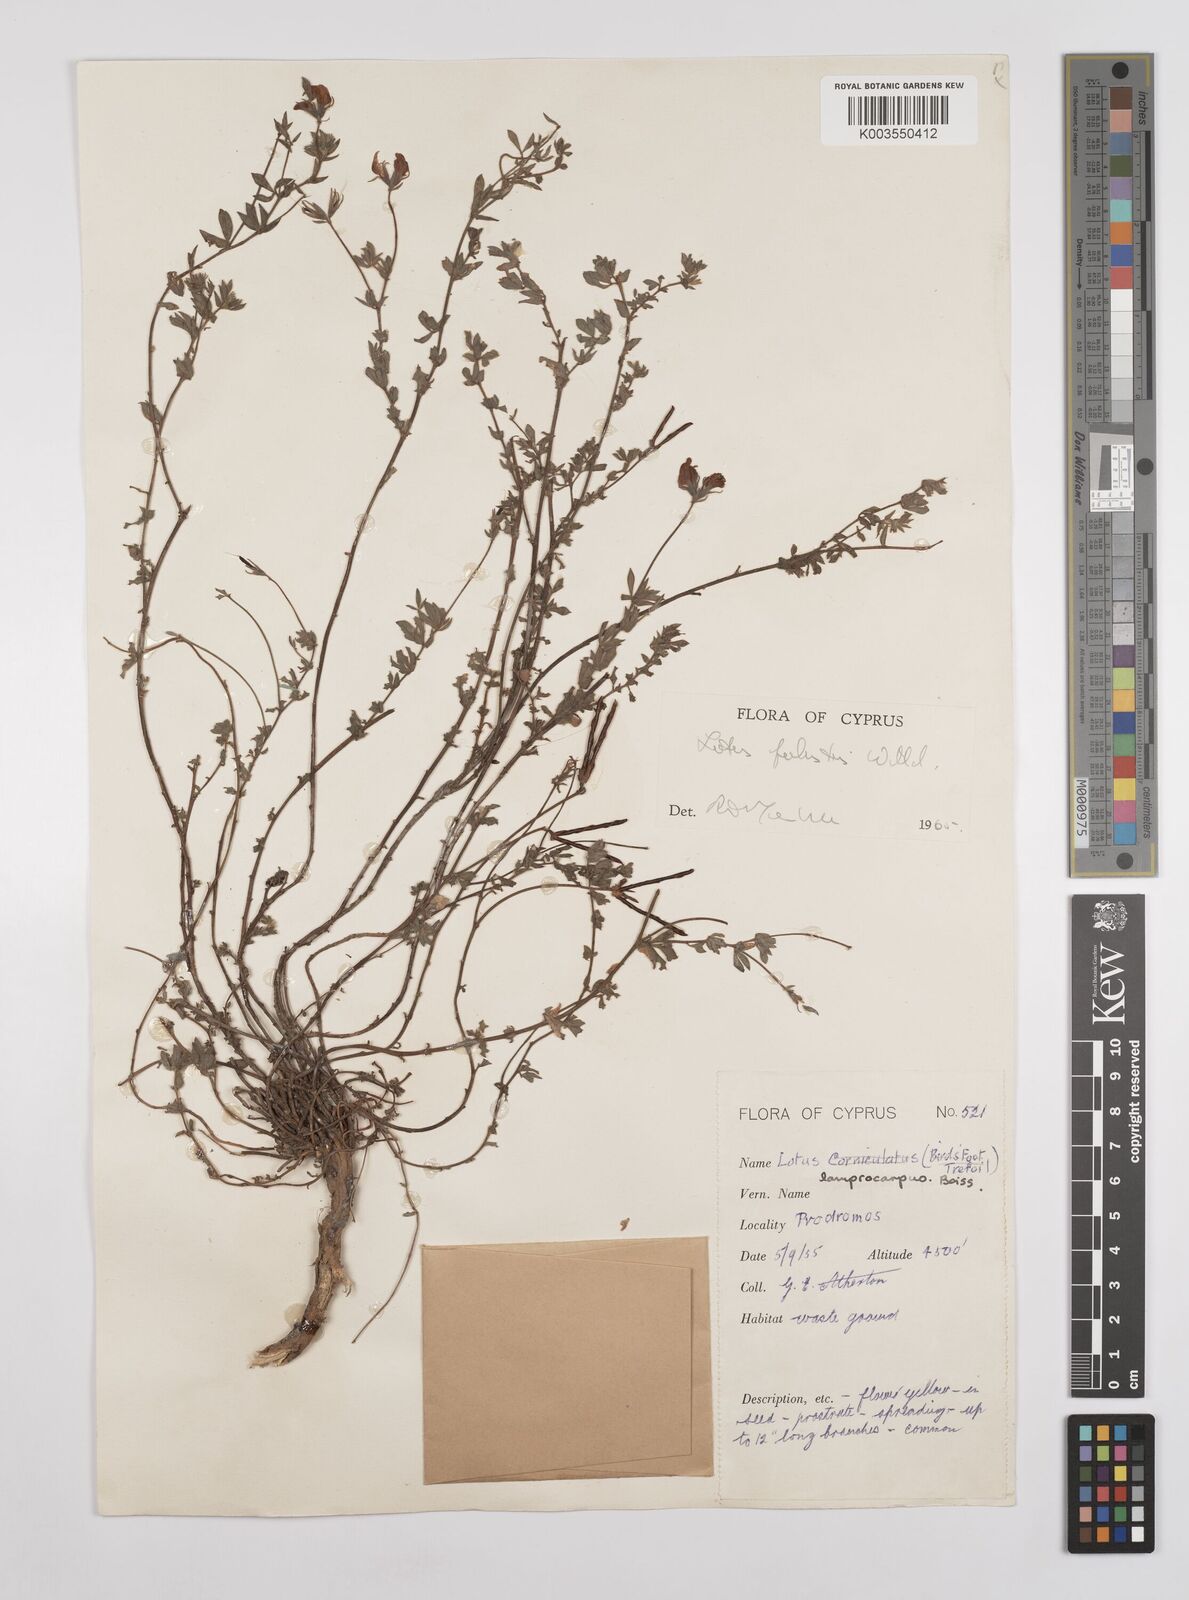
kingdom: Plantae
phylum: Tracheophyta
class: Magnoliopsida
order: Fabales
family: Fabaceae
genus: Lotus
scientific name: Lotus palustris
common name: Large birds-foot trefoil
